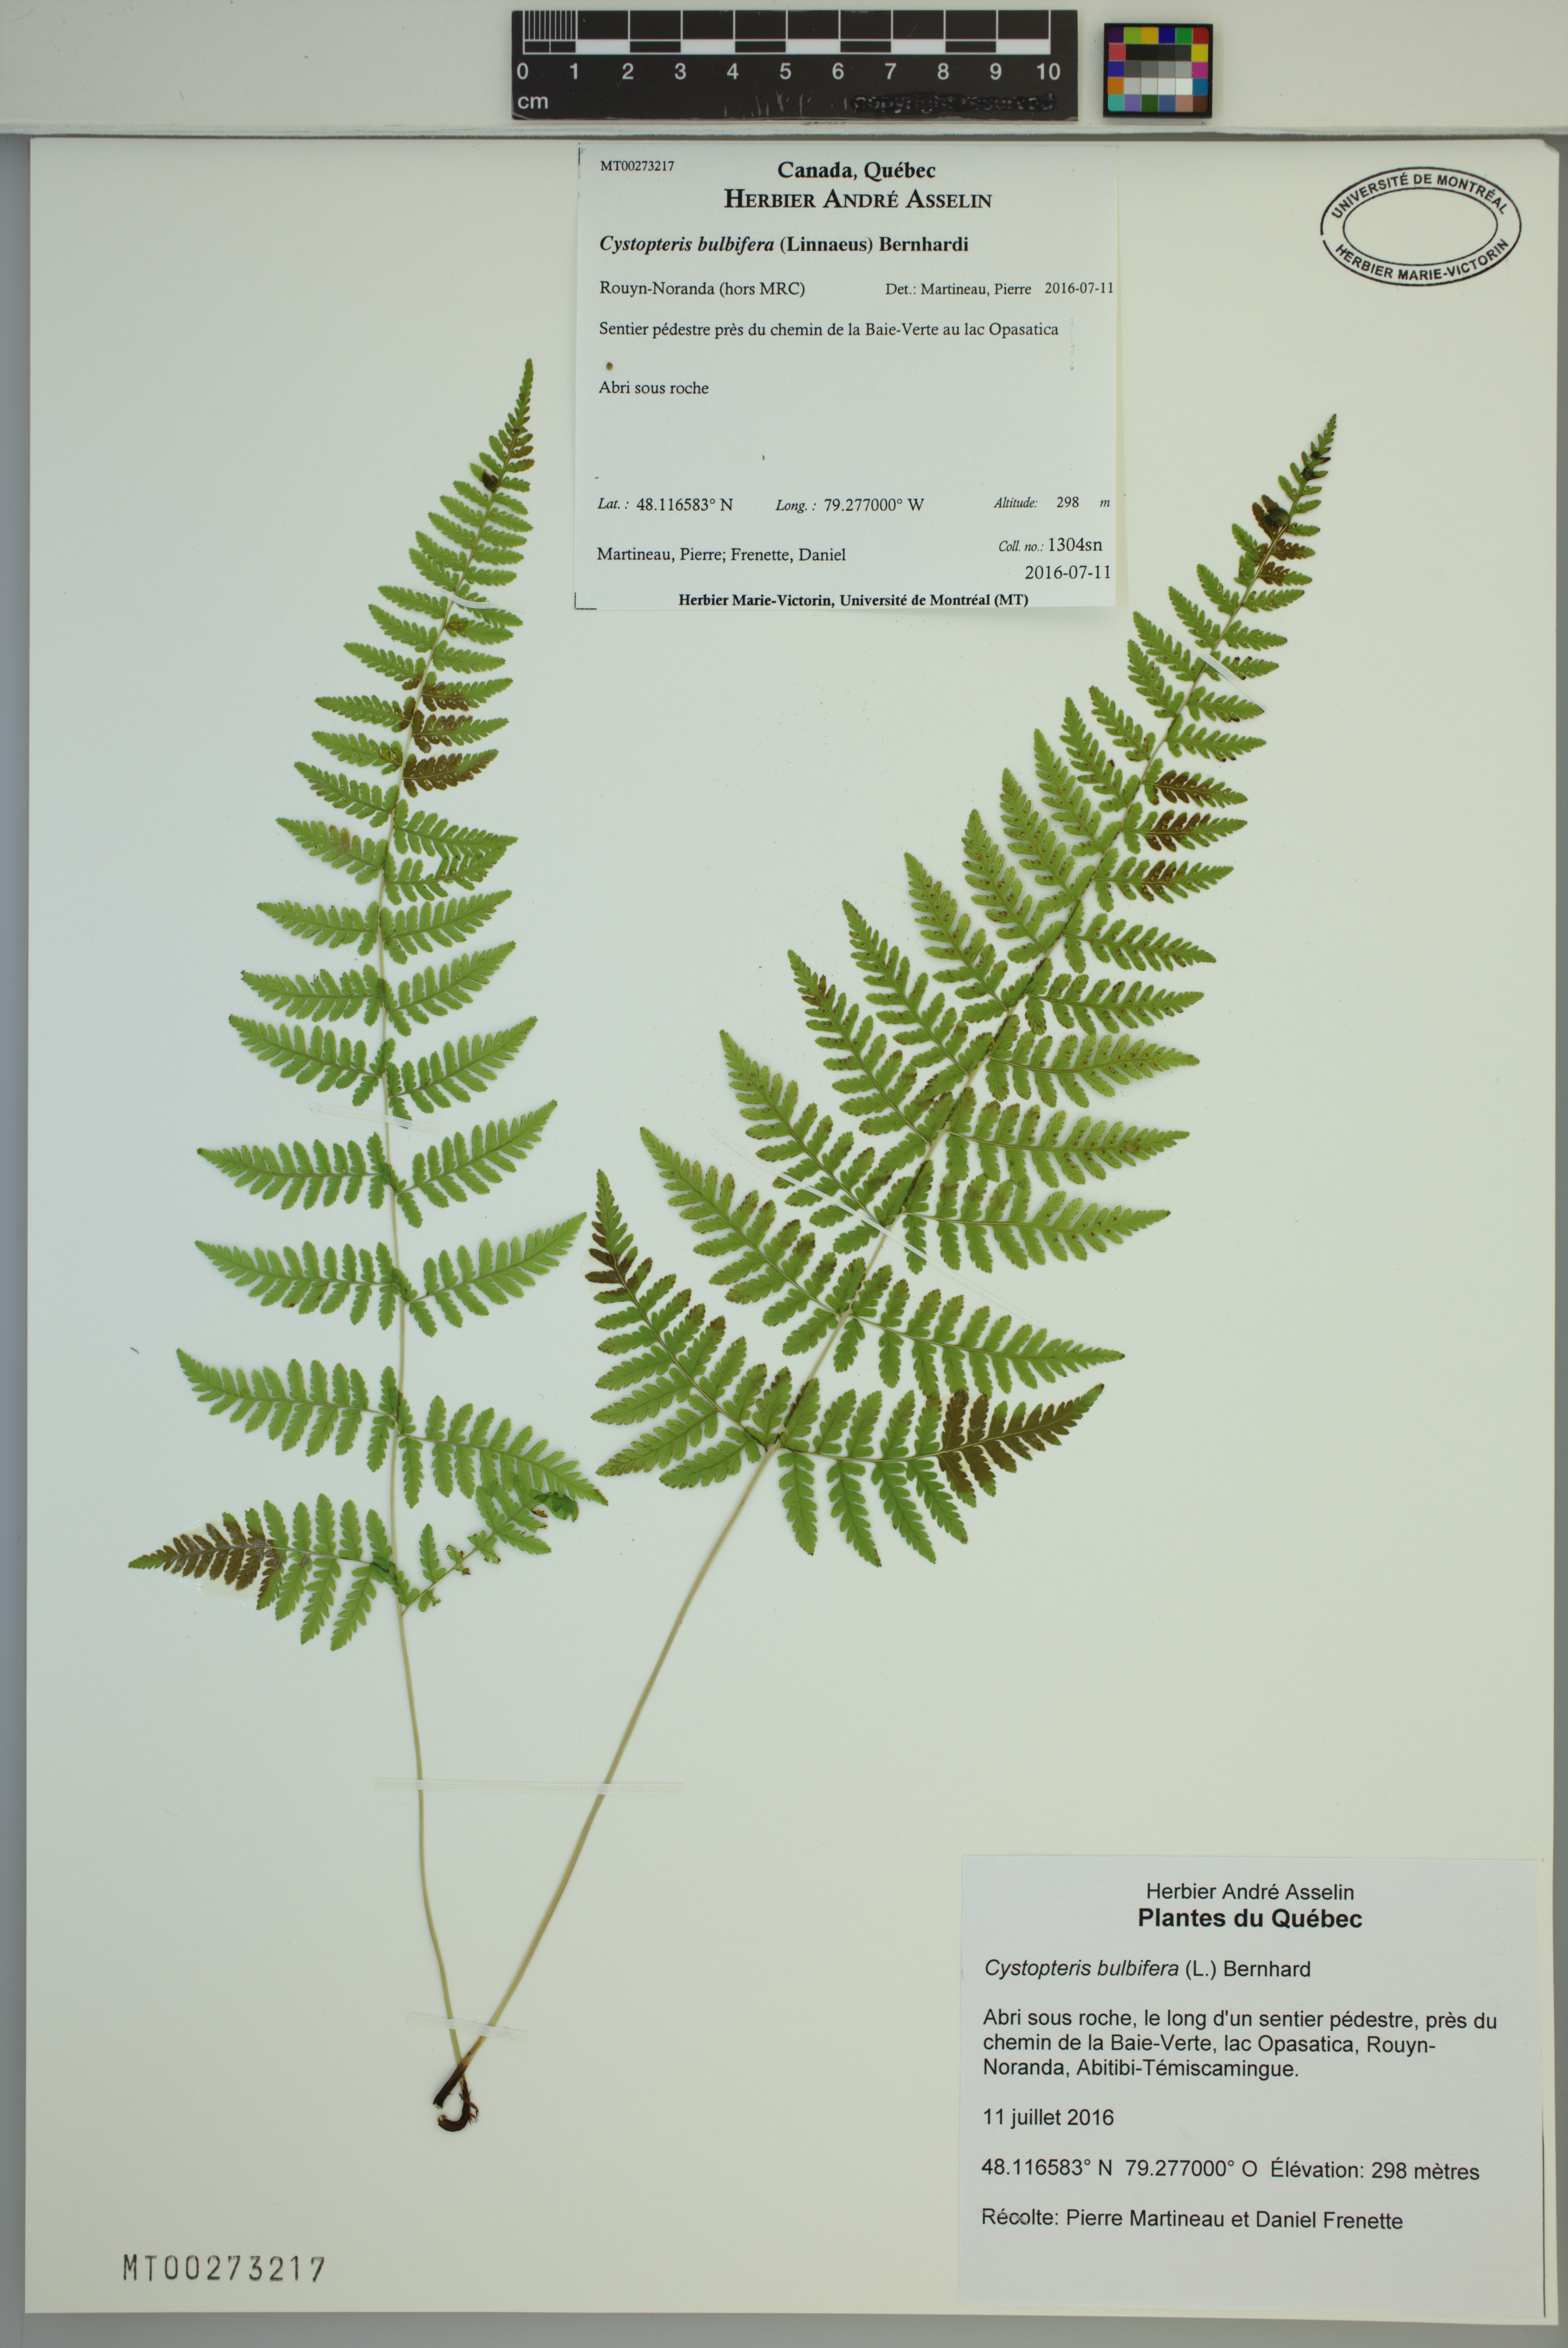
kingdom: Plantae
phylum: Tracheophyta
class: Polypodiopsida
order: Polypodiales
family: Cystopteridaceae
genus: Cystopteris
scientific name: Cystopteris bulbifera
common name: Bulblet bladder fern
